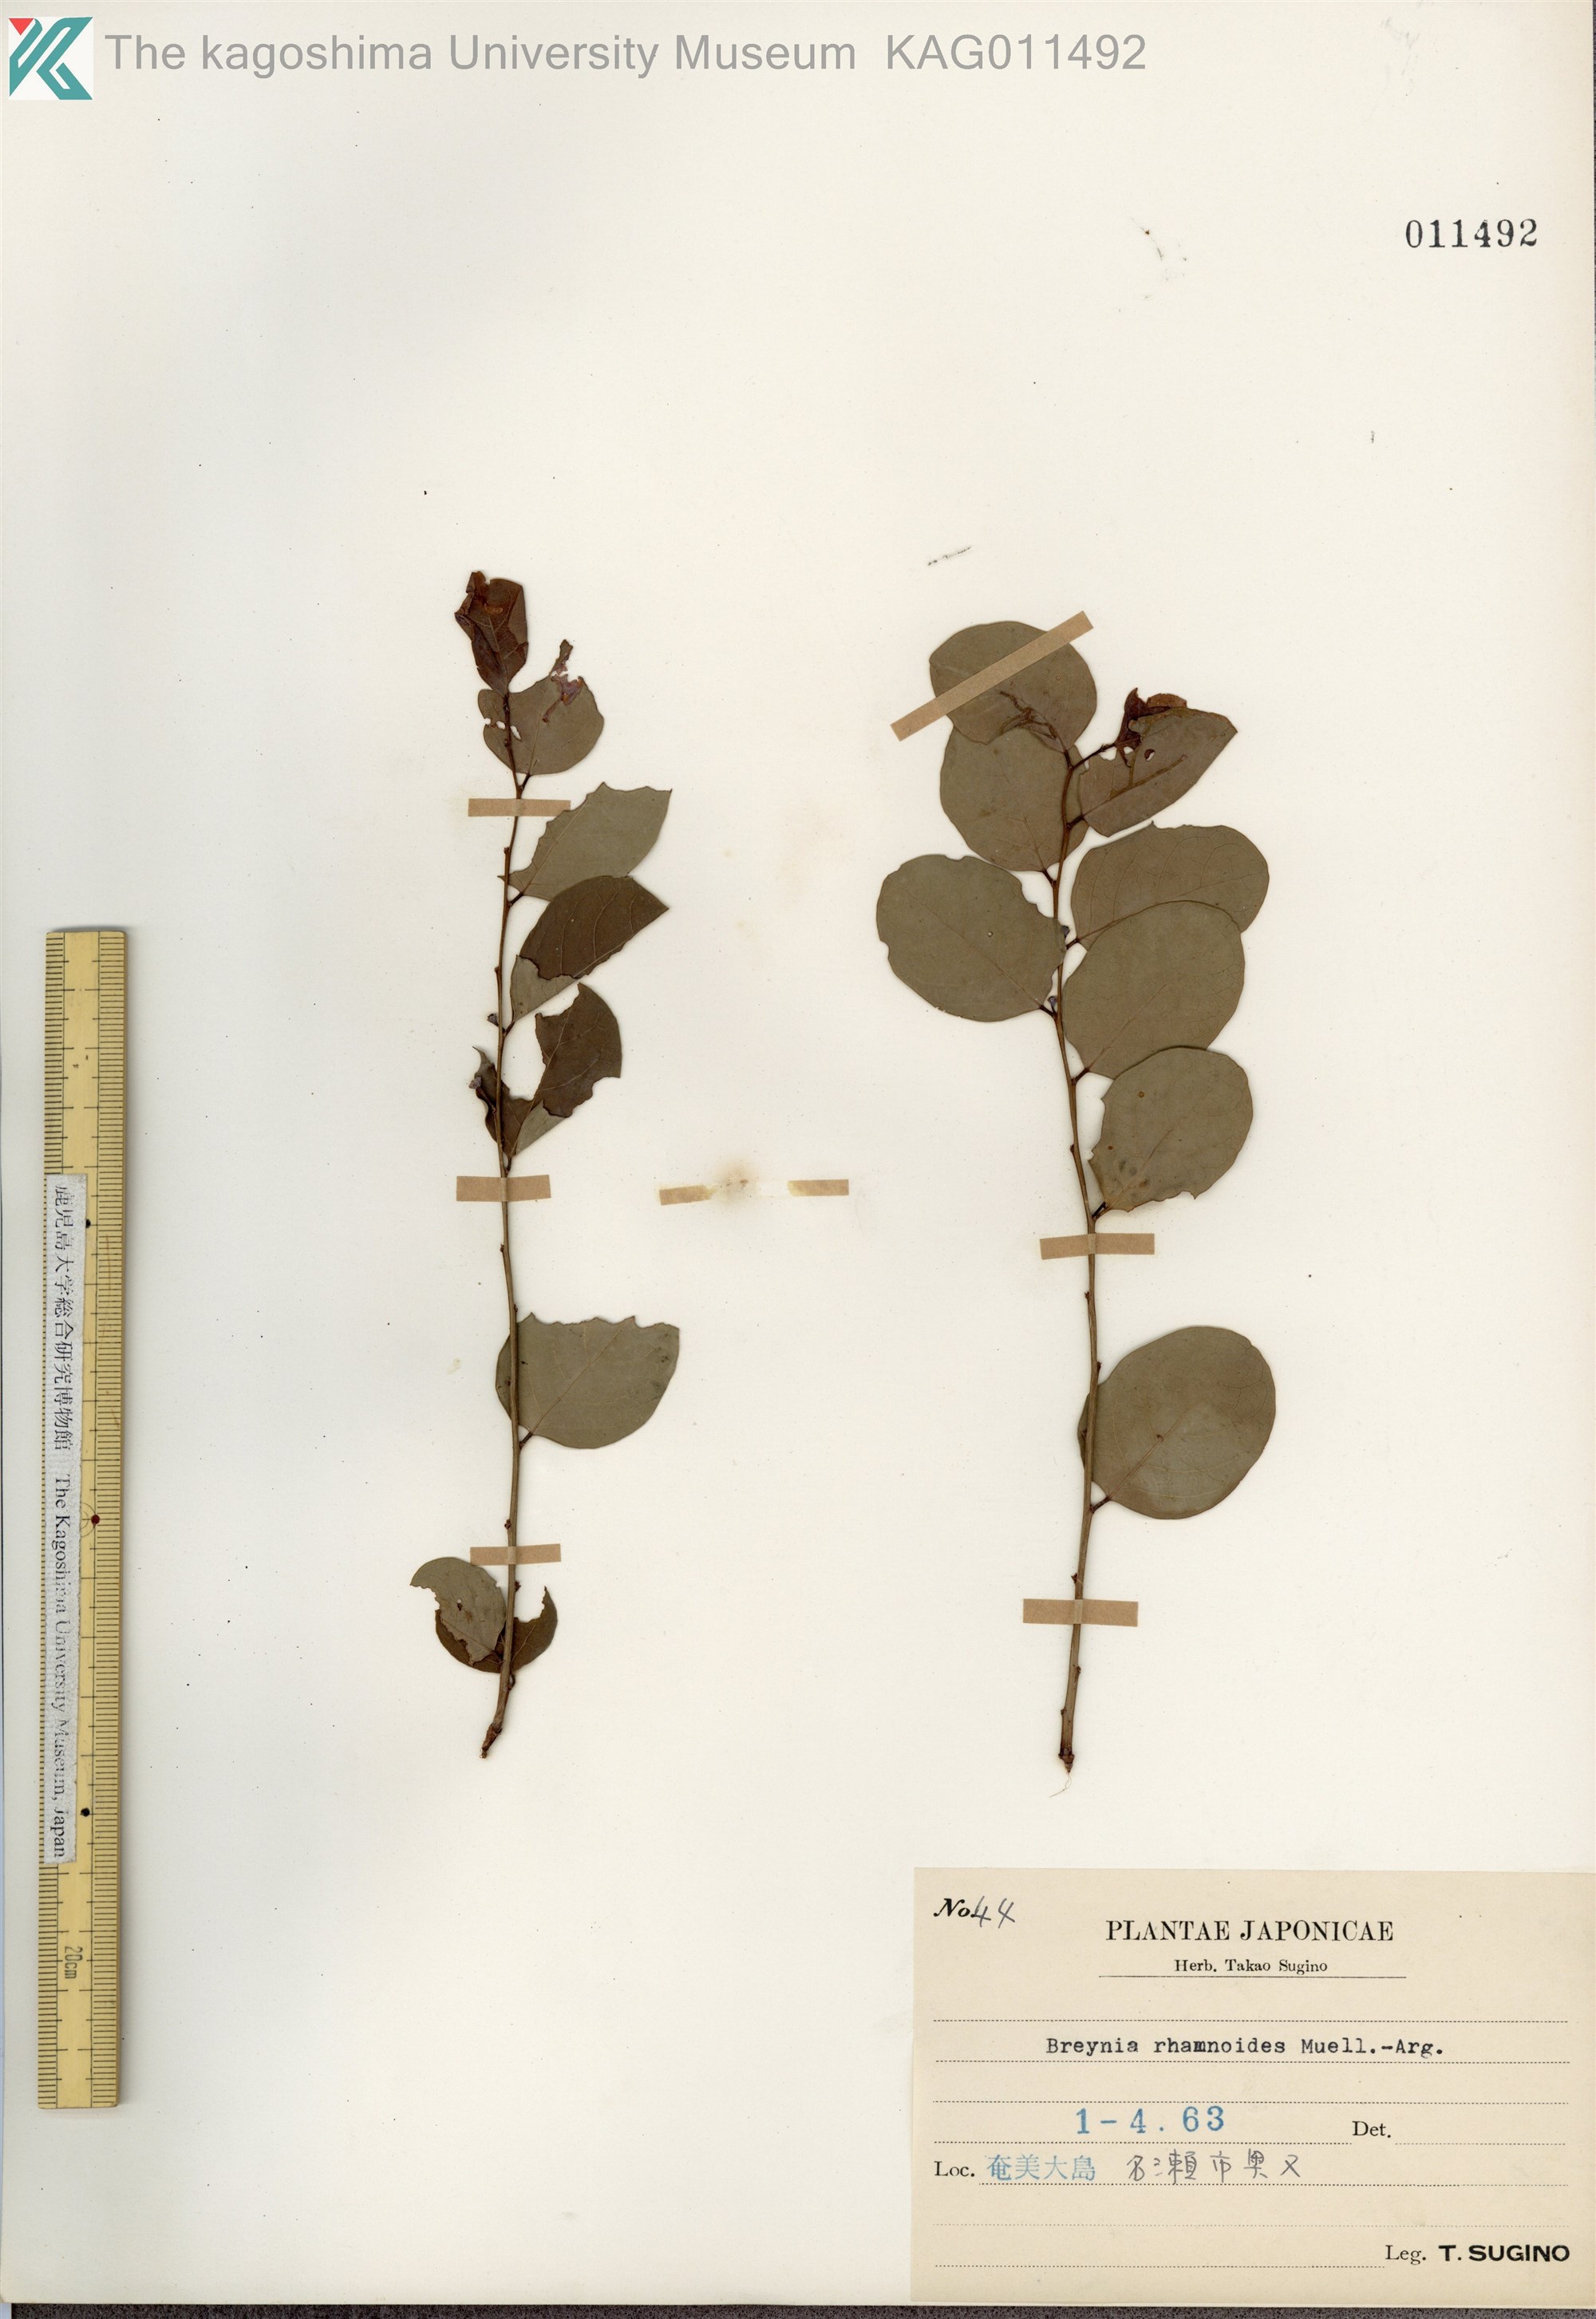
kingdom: Plantae
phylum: Tracheophyta
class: Magnoliopsida
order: Malpighiales
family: Phyllanthaceae
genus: Breynia
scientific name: Breynia vitis-idaea
